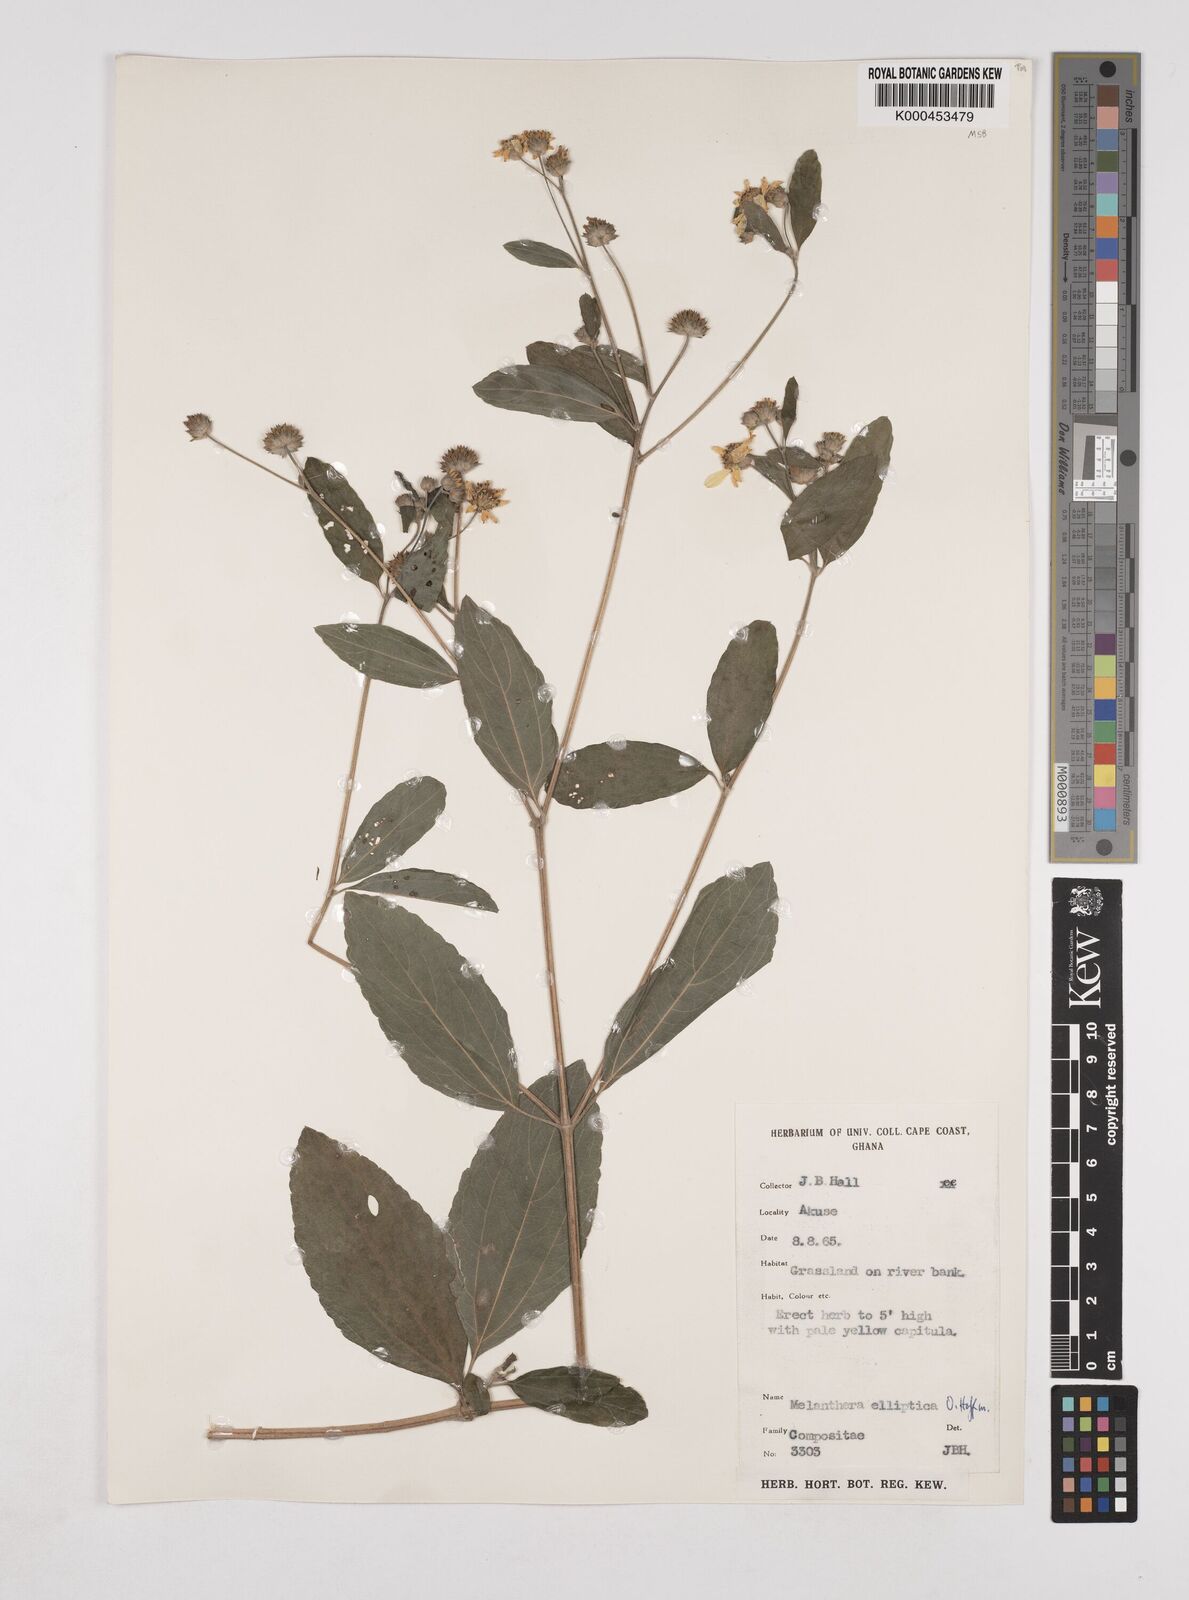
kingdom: Plantae
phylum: Tracheophyta
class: Magnoliopsida
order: Asterales
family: Asteraceae
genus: Lipotriche
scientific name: Lipotriche elliptica
